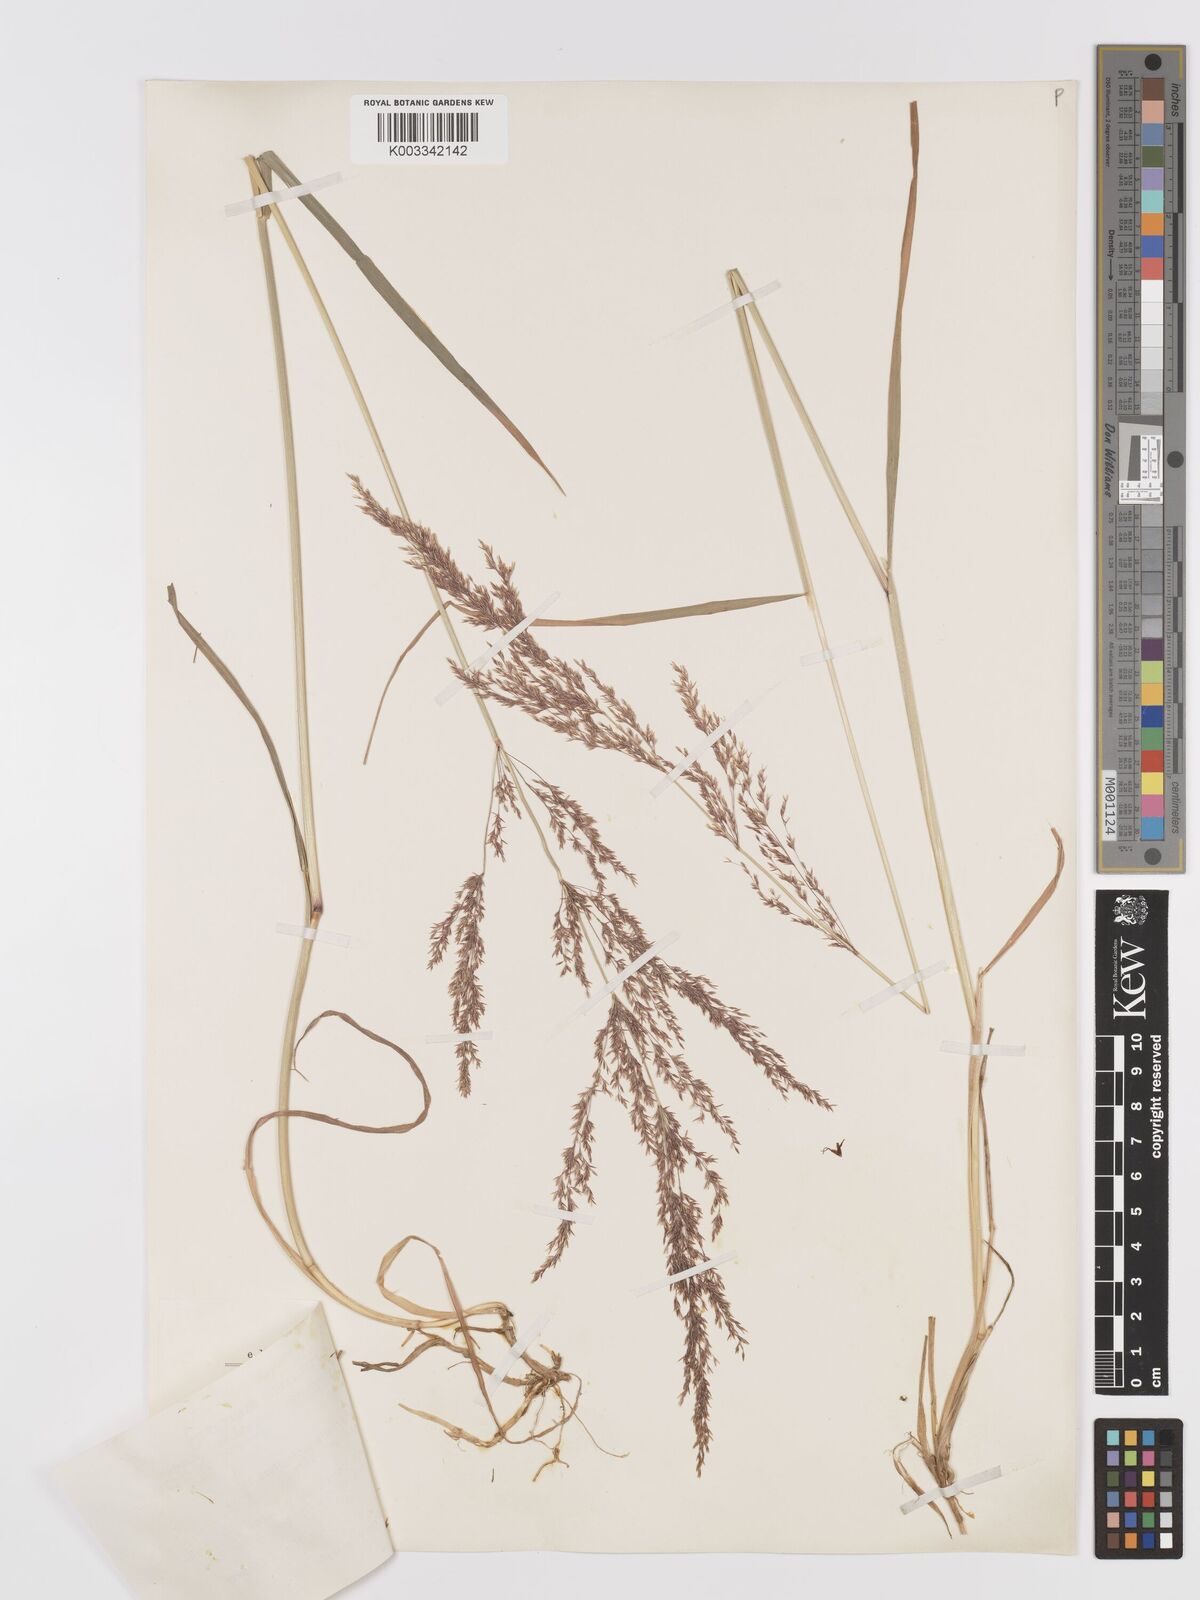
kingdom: Plantae
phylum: Tracheophyta
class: Liliopsida
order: Poales
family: Poaceae
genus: Agrostis
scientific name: Agrostis stolonifera
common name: Creeping bentgrass
